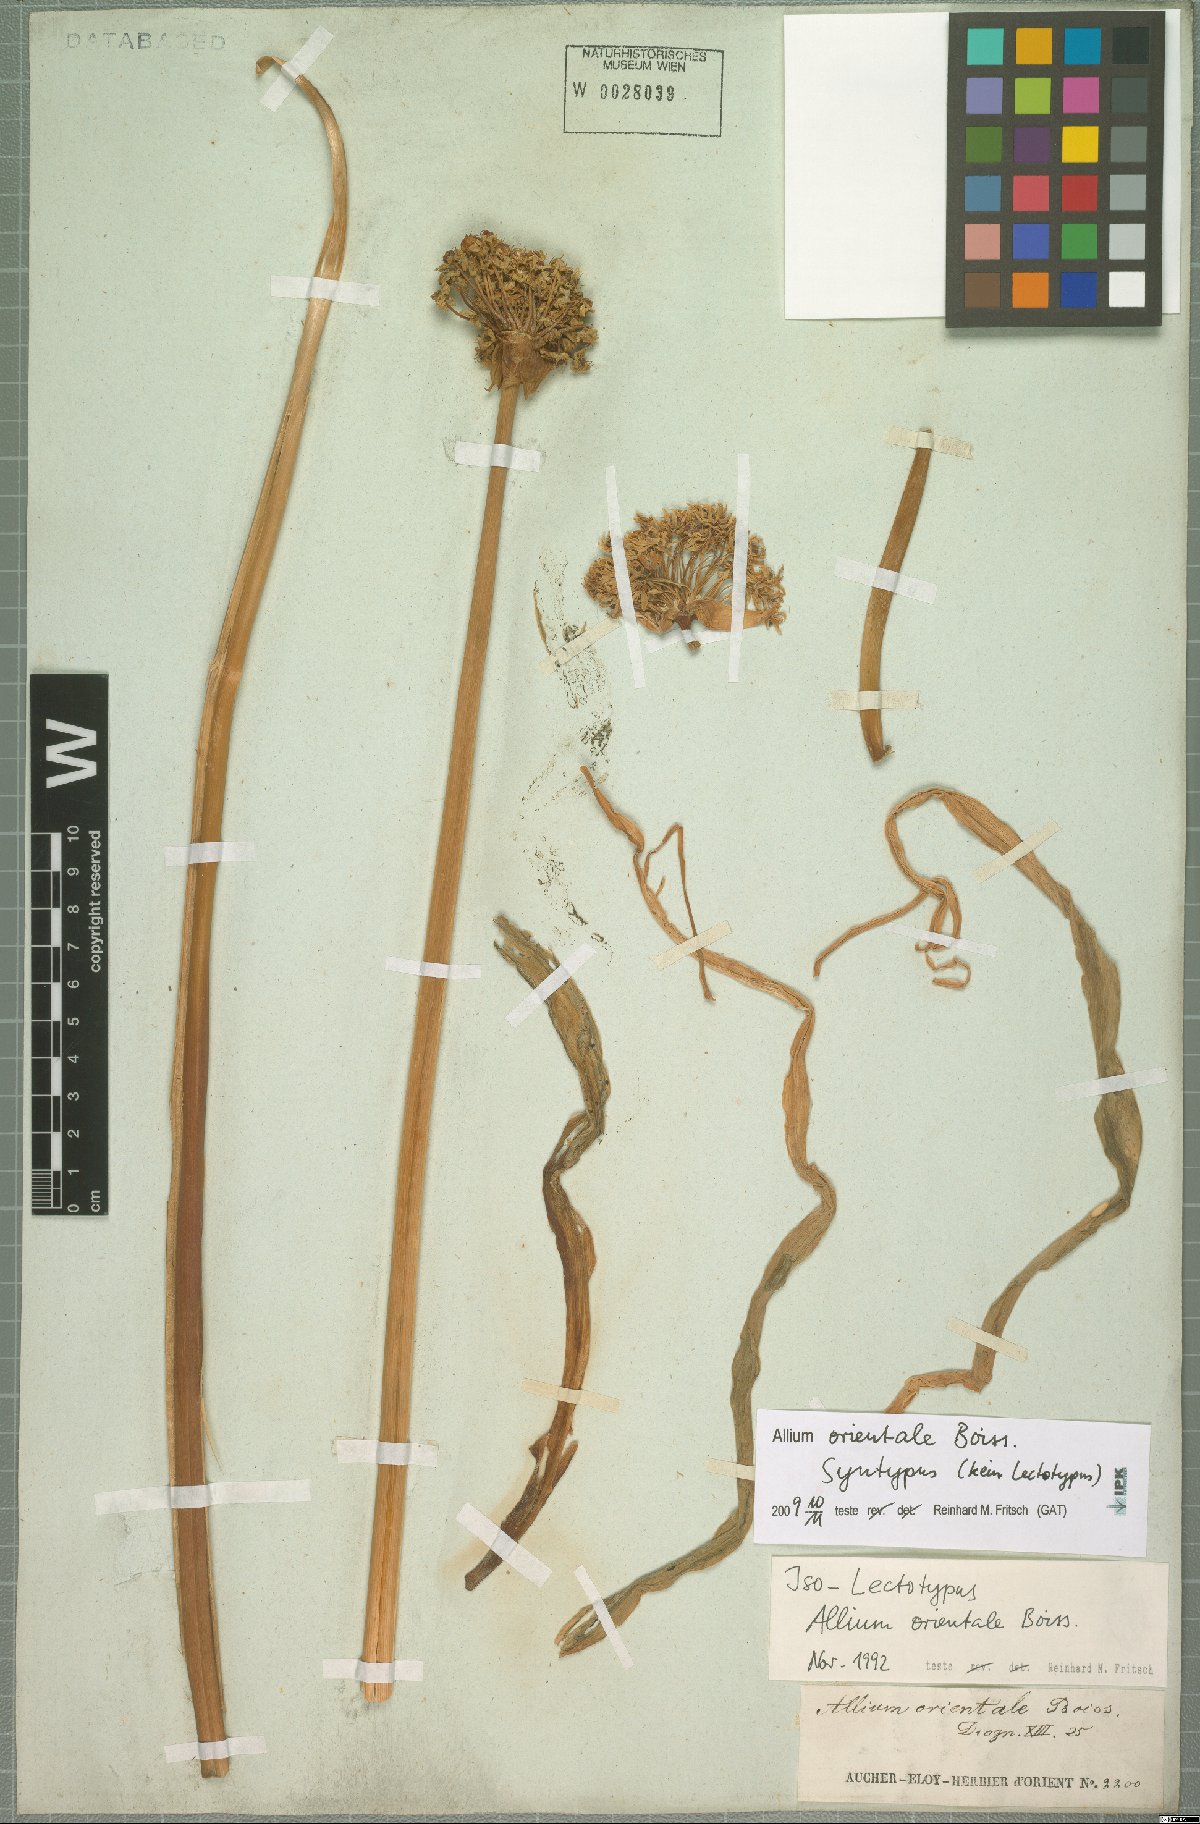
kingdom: Plantae
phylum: Tracheophyta
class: Liliopsida
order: Asparagales
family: Amaryllidaceae
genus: Allium
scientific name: Allium orientale
